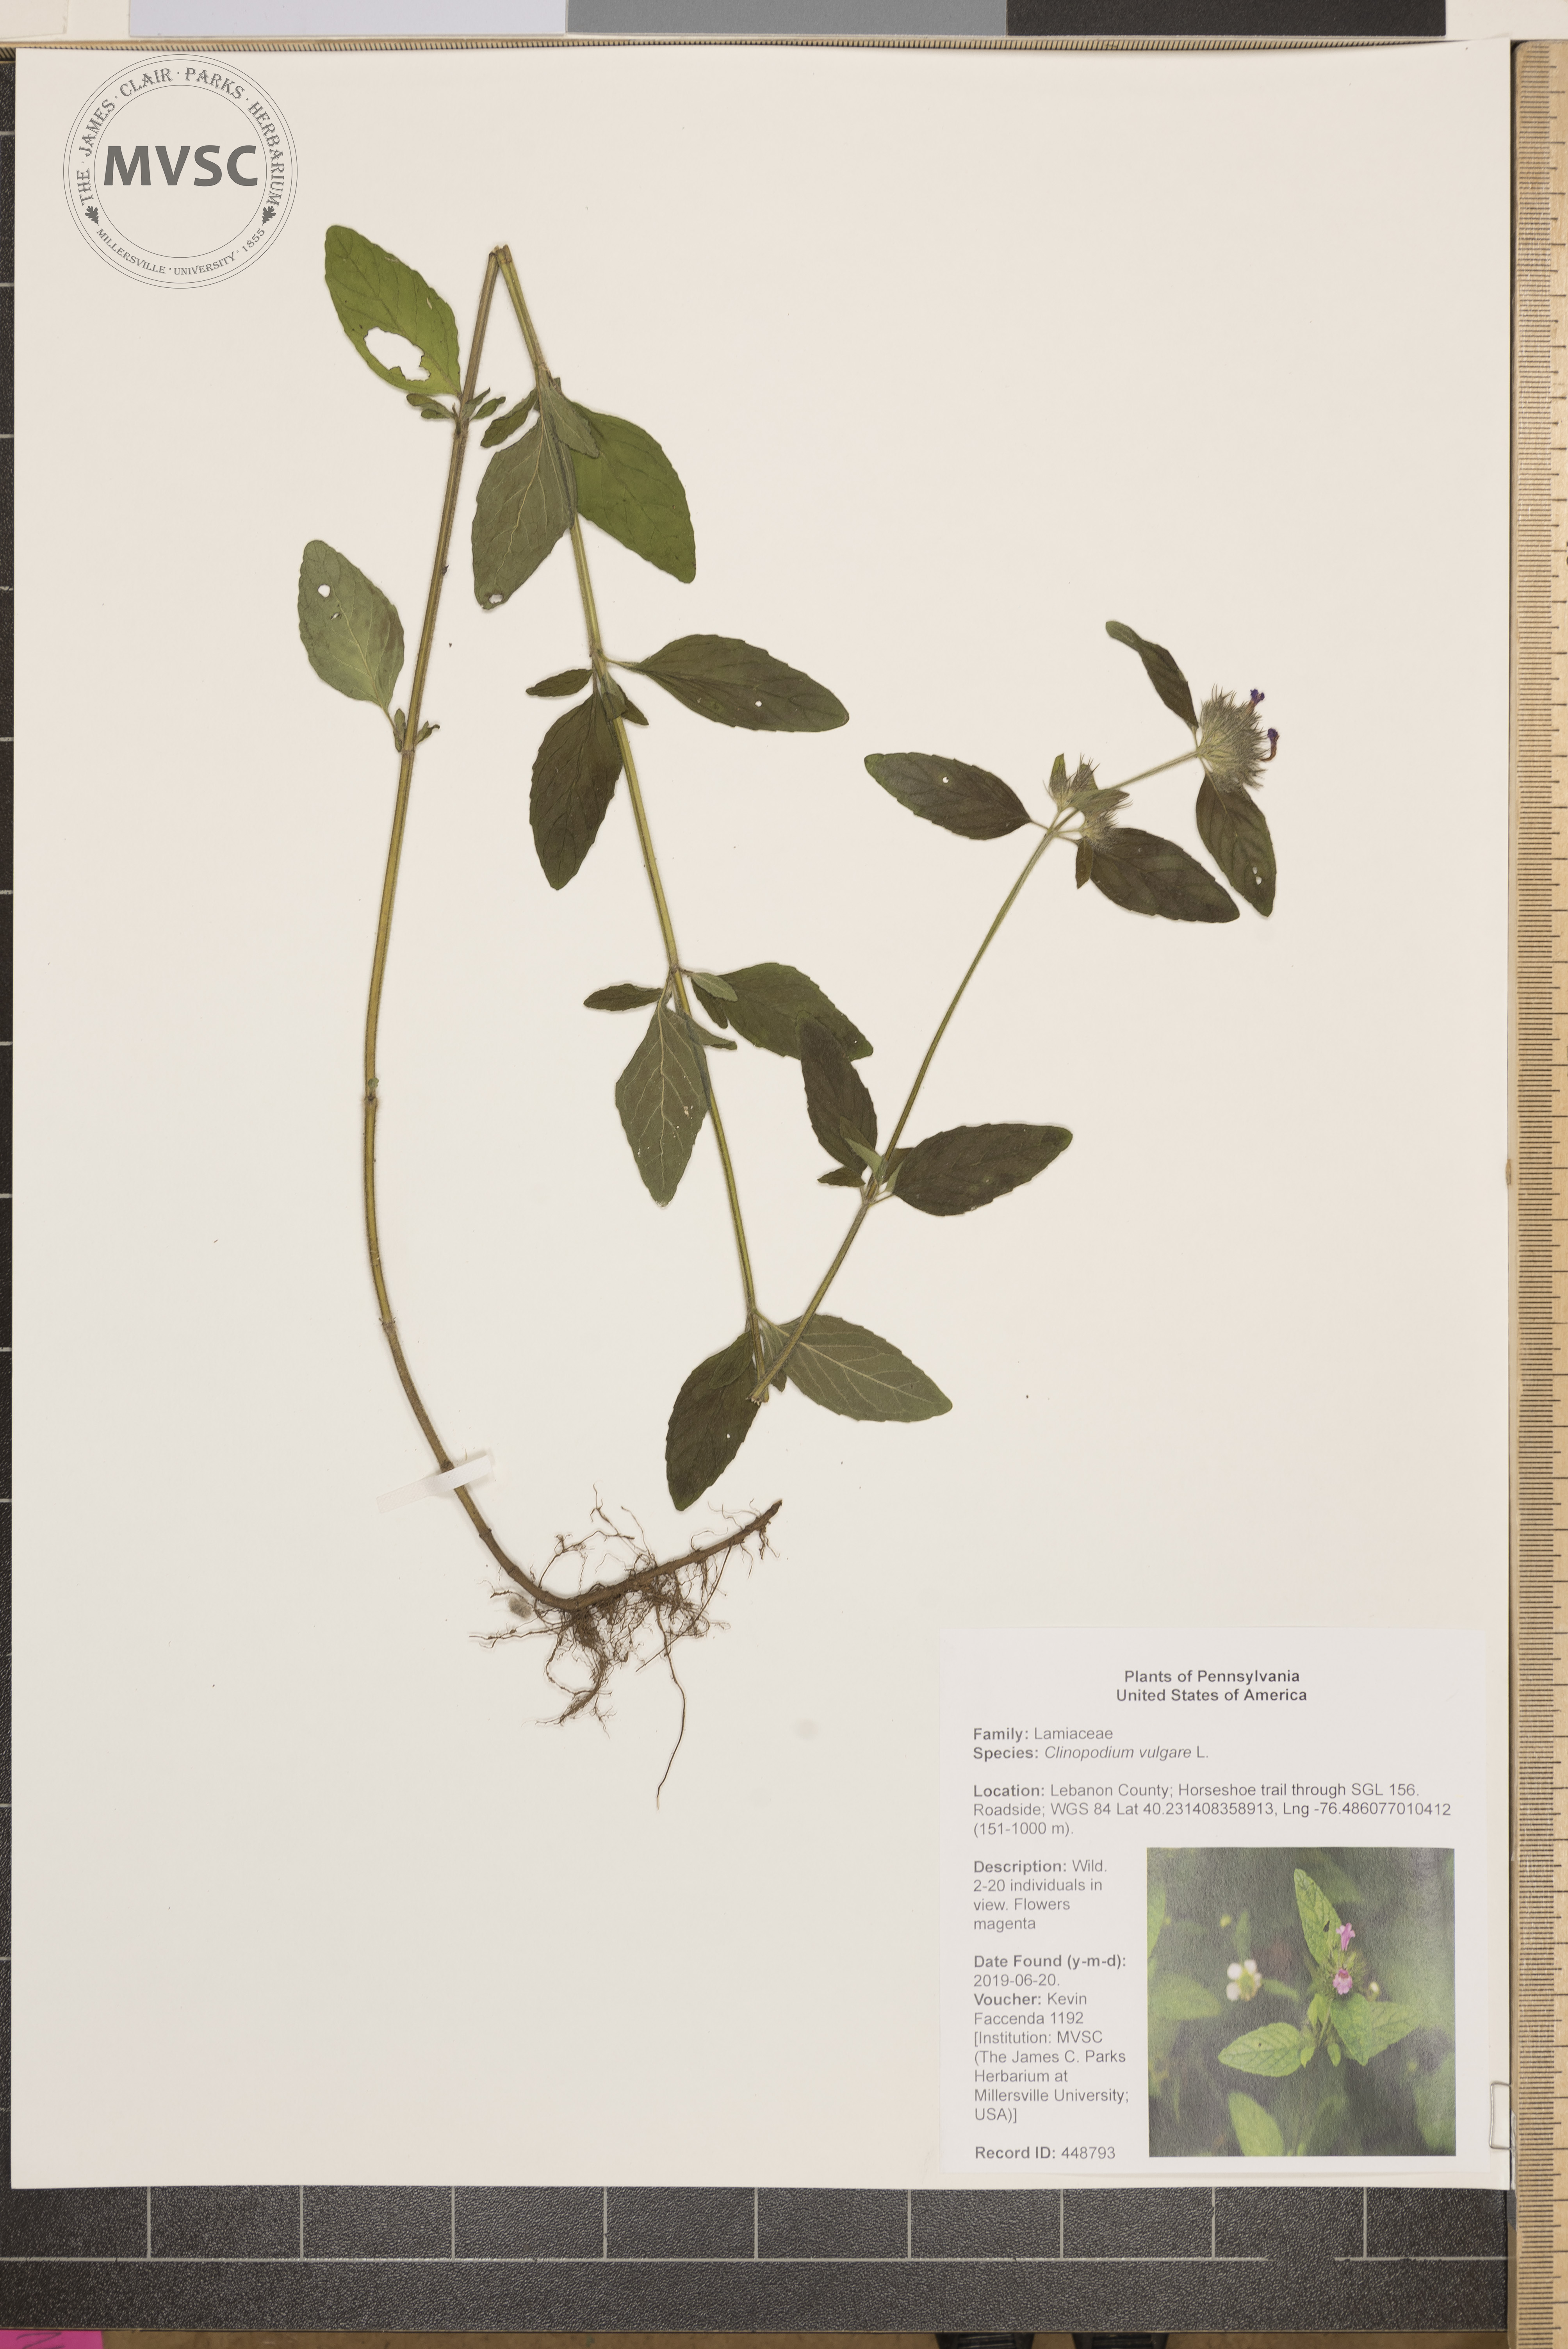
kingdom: Plantae
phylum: Tracheophyta
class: Magnoliopsida
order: Lamiales
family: Lamiaceae
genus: Clinopodium
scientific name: Clinopodium vulgare
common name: Wild basil
